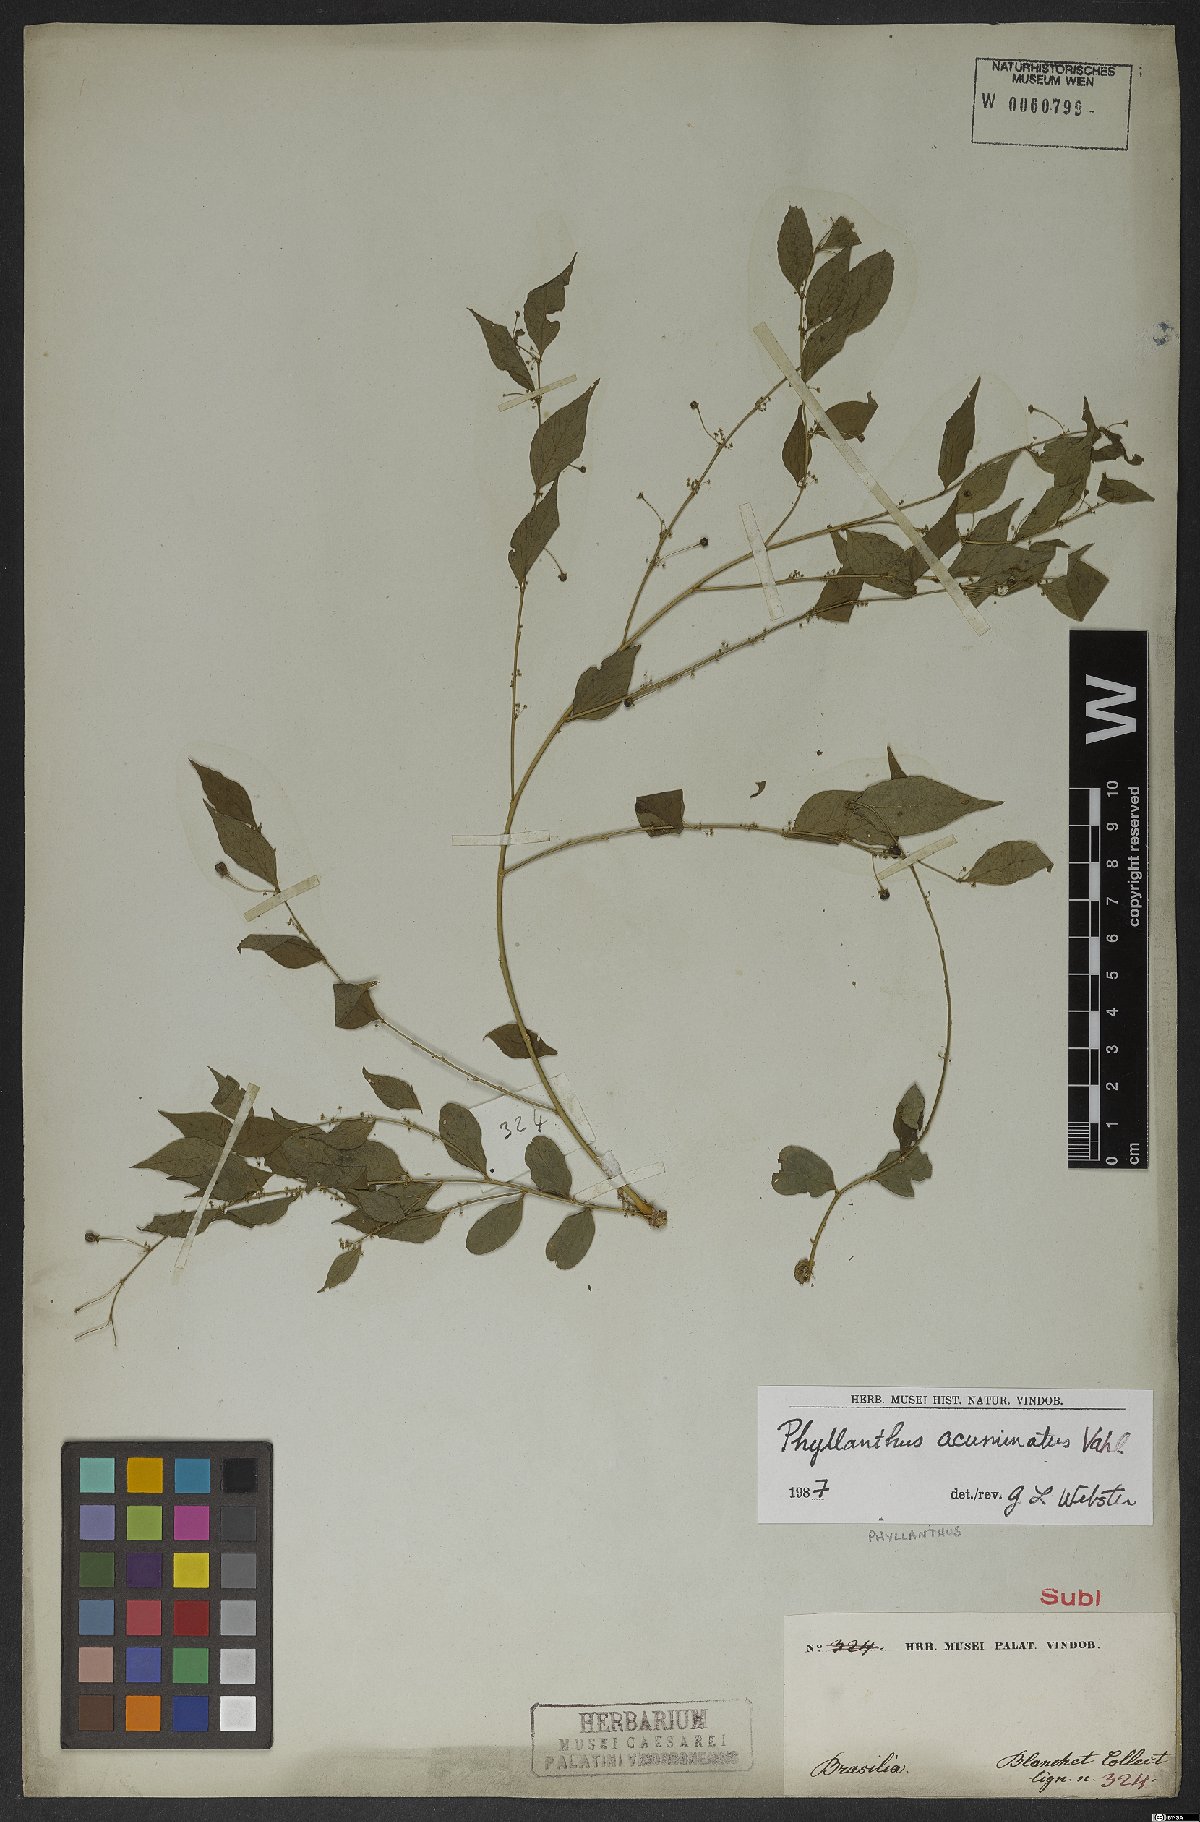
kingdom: Plantae
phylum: Tracheophyta
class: Magnoliopsida
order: Malpighiales
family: Phyllanthaceae
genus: Phyllanthus
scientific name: Phyllanthus acuminatus
